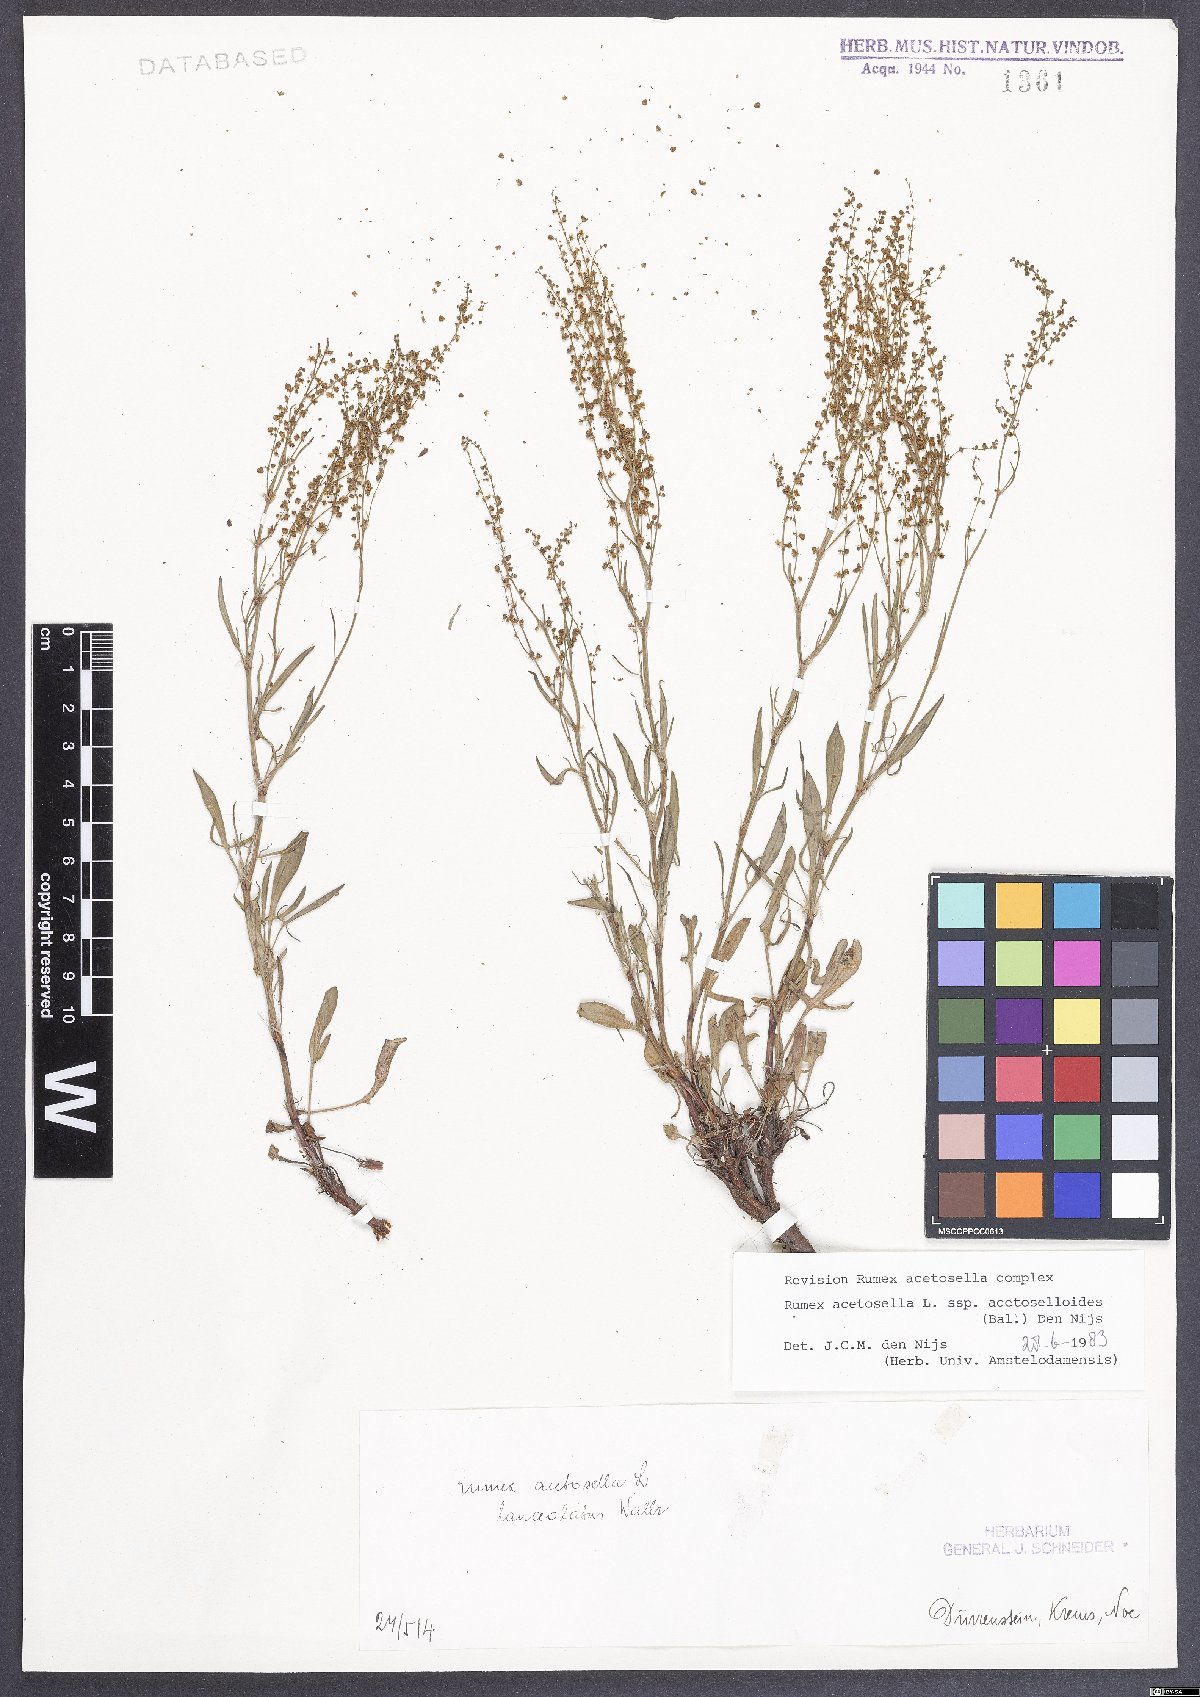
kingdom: Plantae
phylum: Tracheophyta
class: Magnoliopsida
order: Caryophyllales
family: Polygonaceae
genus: Rumex
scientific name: Rumex acetosella
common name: Common sheep sorrel
